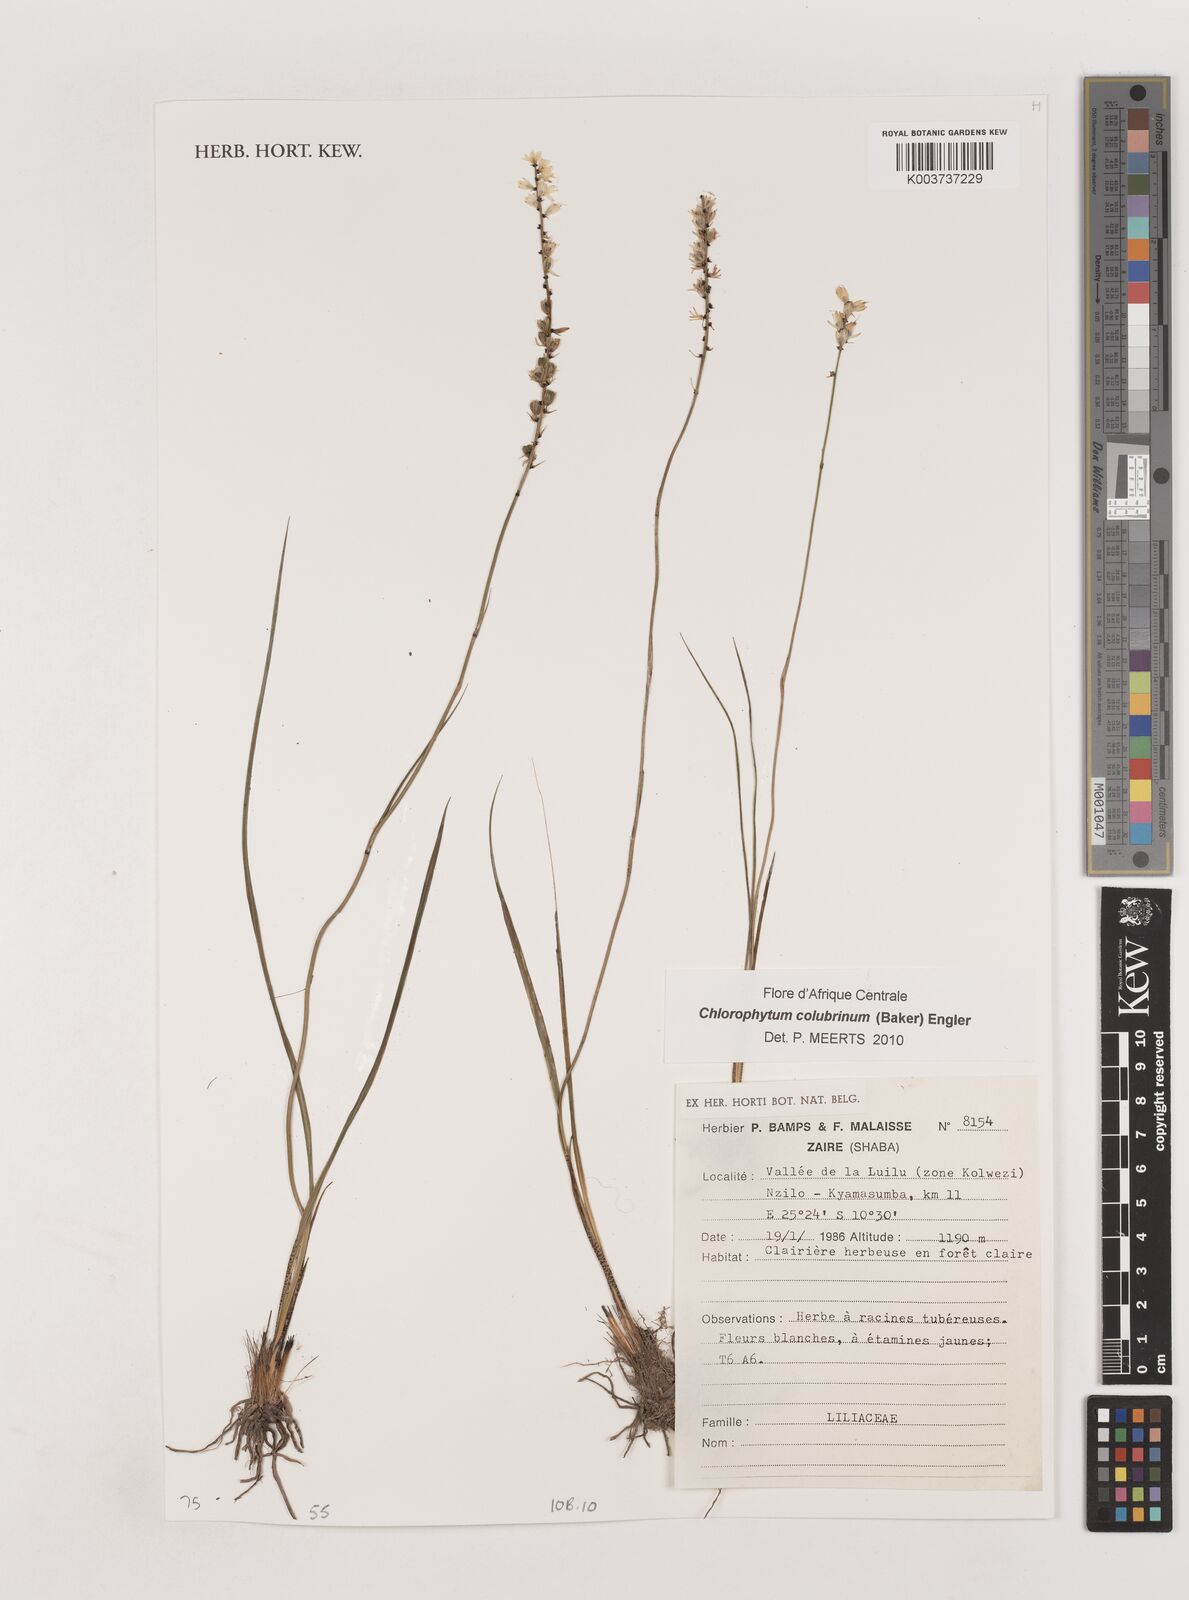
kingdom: Plantae
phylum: Tracheophyta
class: Liliopsida
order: Asparagales
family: Asparagaceae
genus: Chlorophytum
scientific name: Chlorophytum colubrinum
